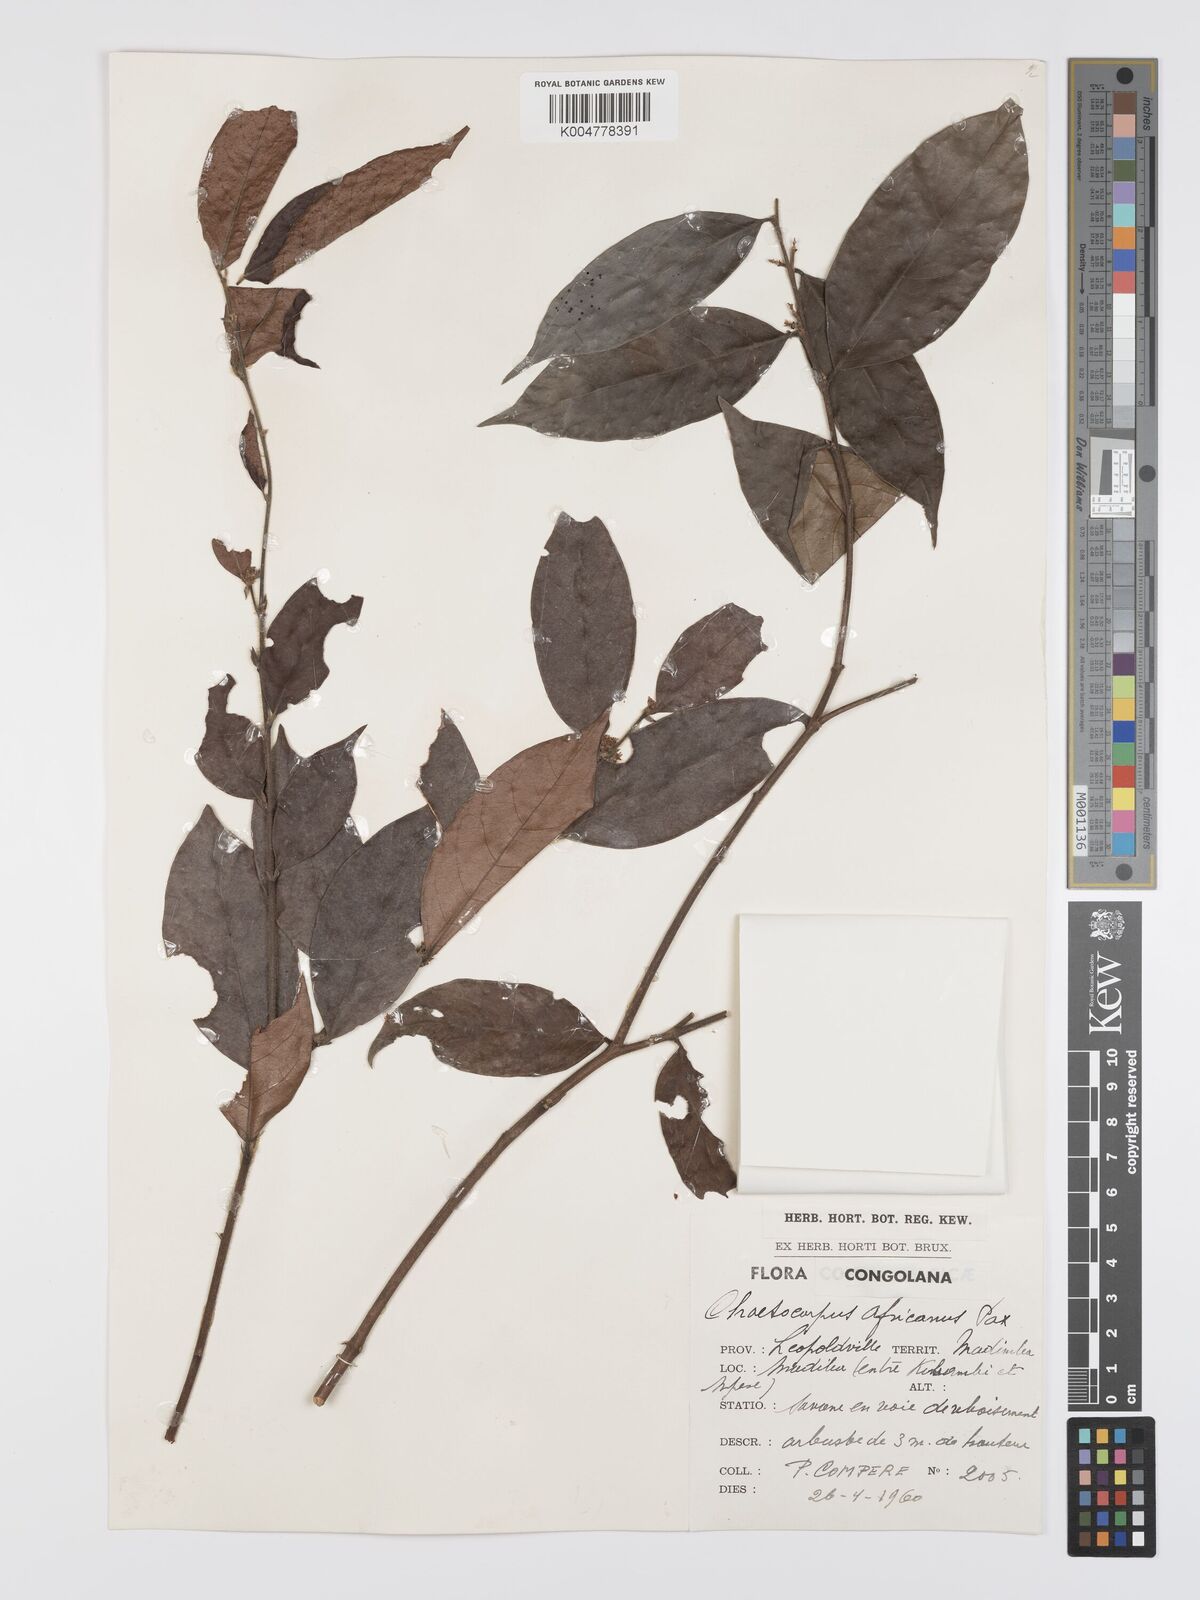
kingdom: Plantae
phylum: Tracheophyta
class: Magnoliopsida
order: Malpighiales
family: Peraceae
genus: Chaetocarpus
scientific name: Chaetocarpus africanus
